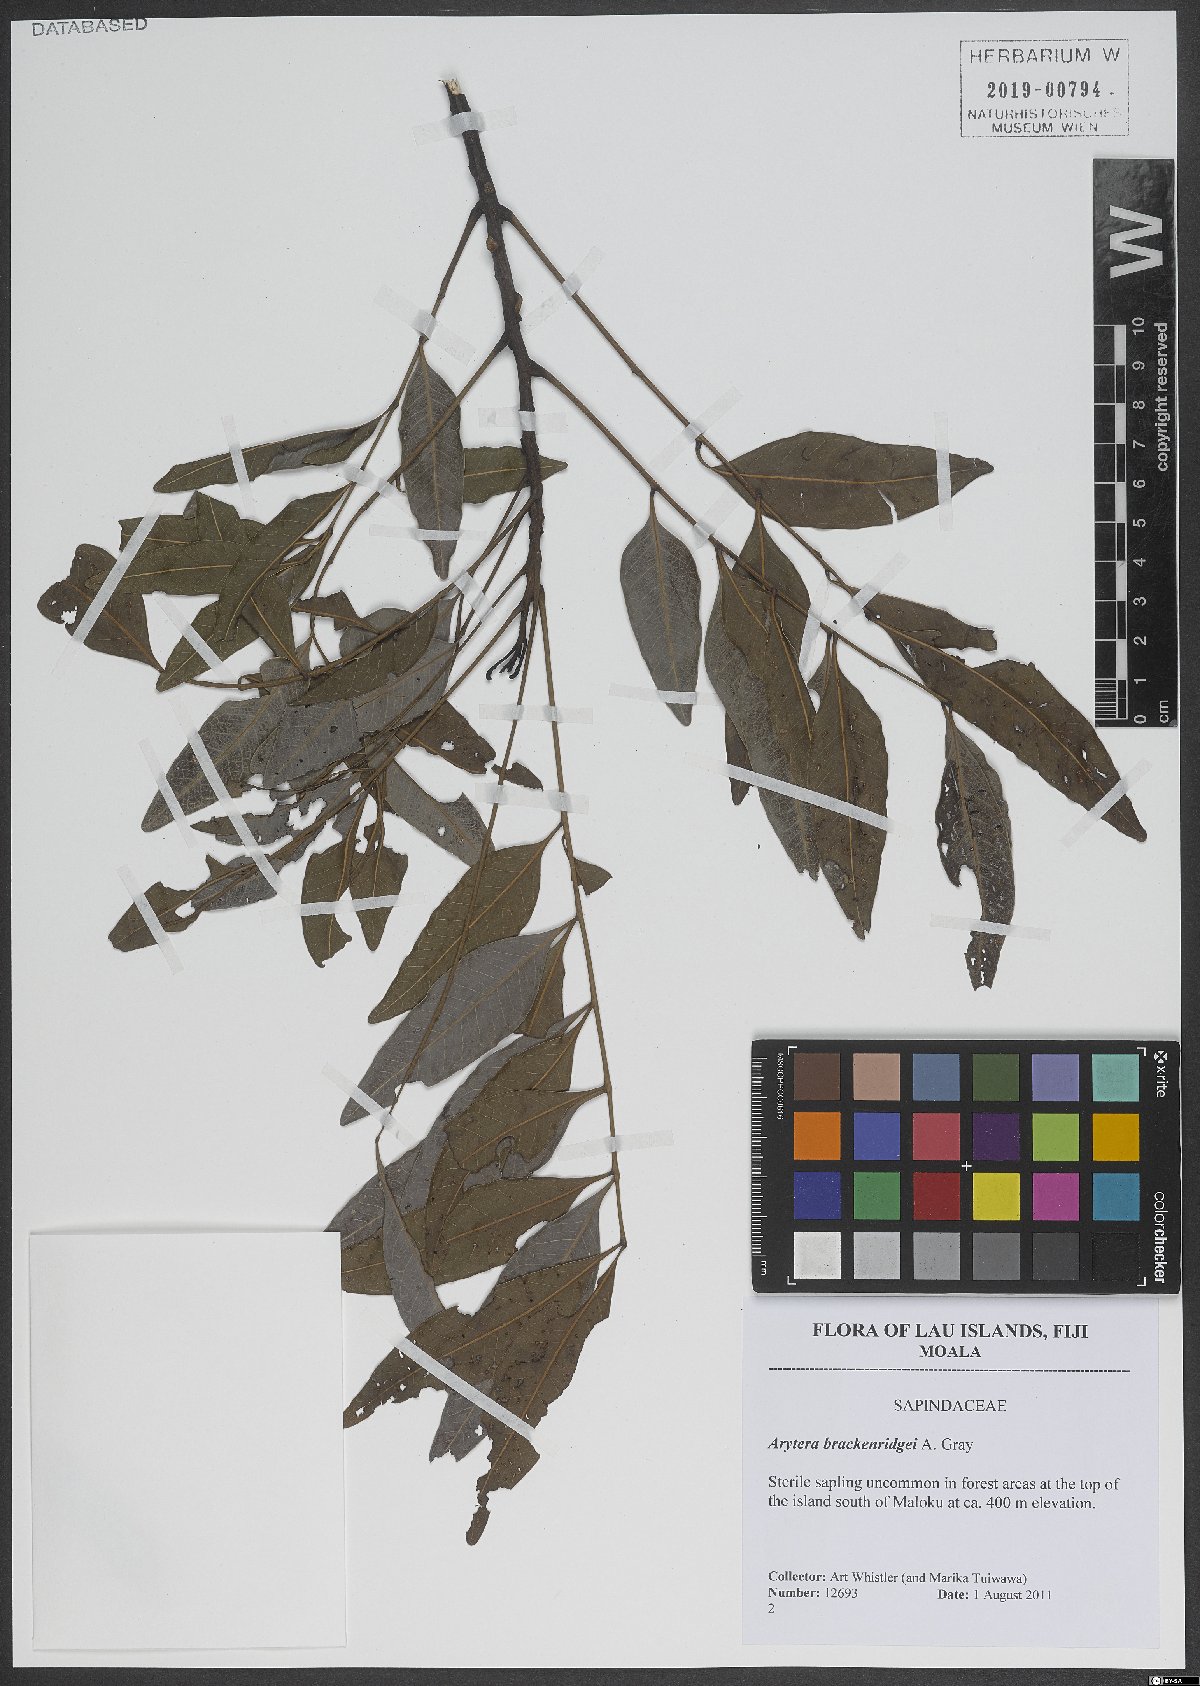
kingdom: Plantae
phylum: Tracheophyta
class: Magnoliopsida
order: Sapindales
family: Sapindaceae
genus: Lepidocupania
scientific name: Lepidocupania brackenridgei
